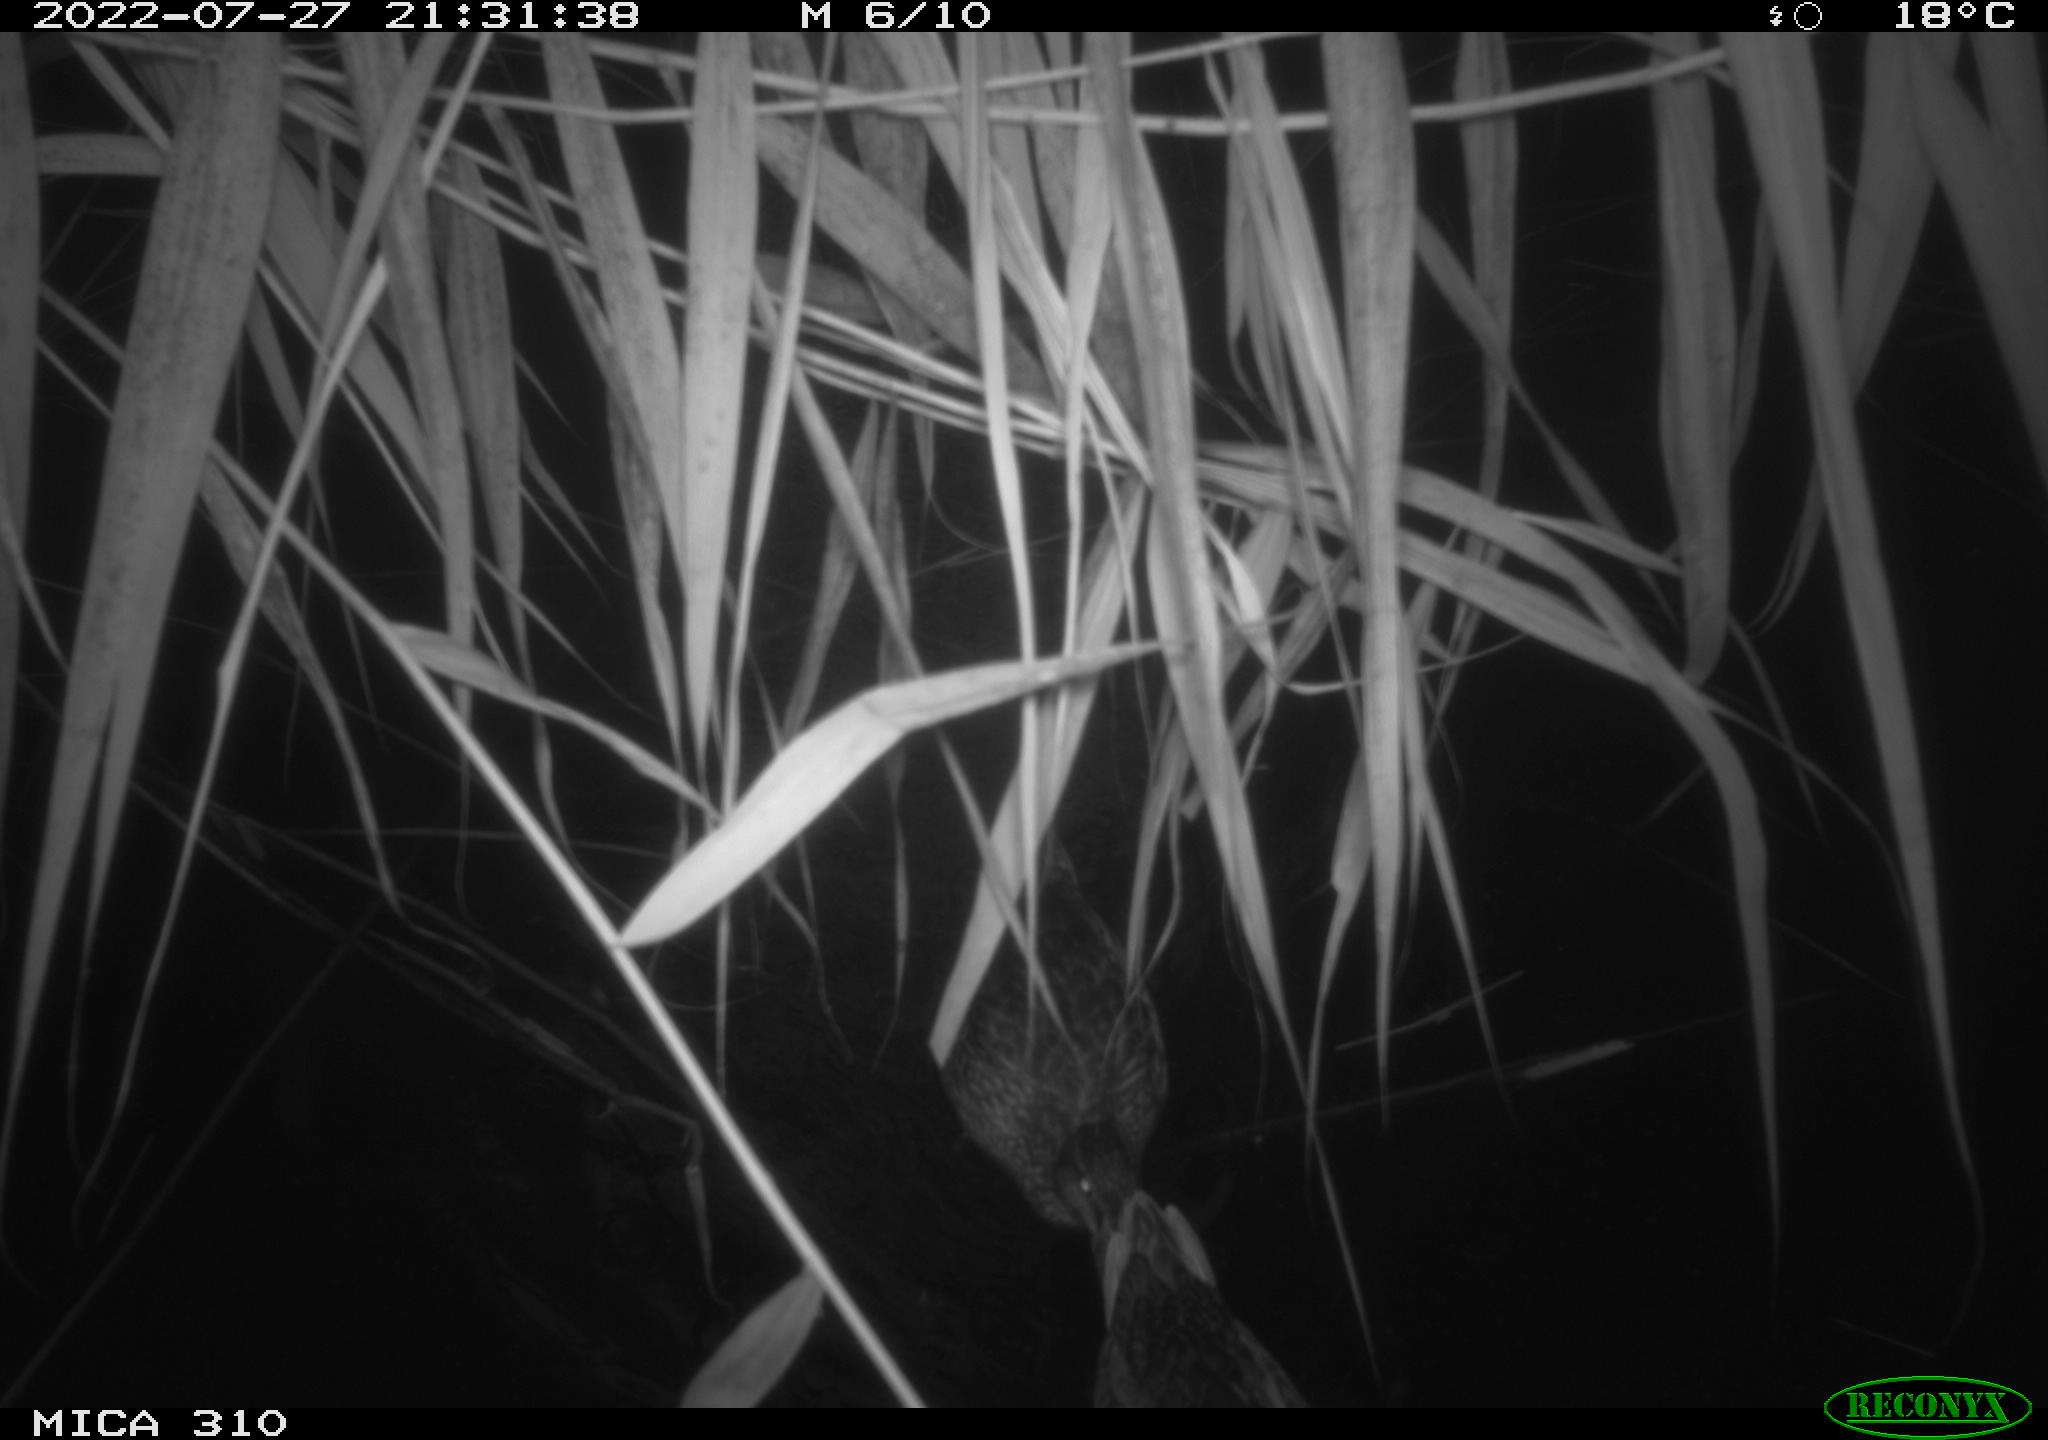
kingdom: Animalia
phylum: Chordata
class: Aves
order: Anseriformes
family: Anatidae
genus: Anas
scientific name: Anas platyrhynchos
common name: Mallard
